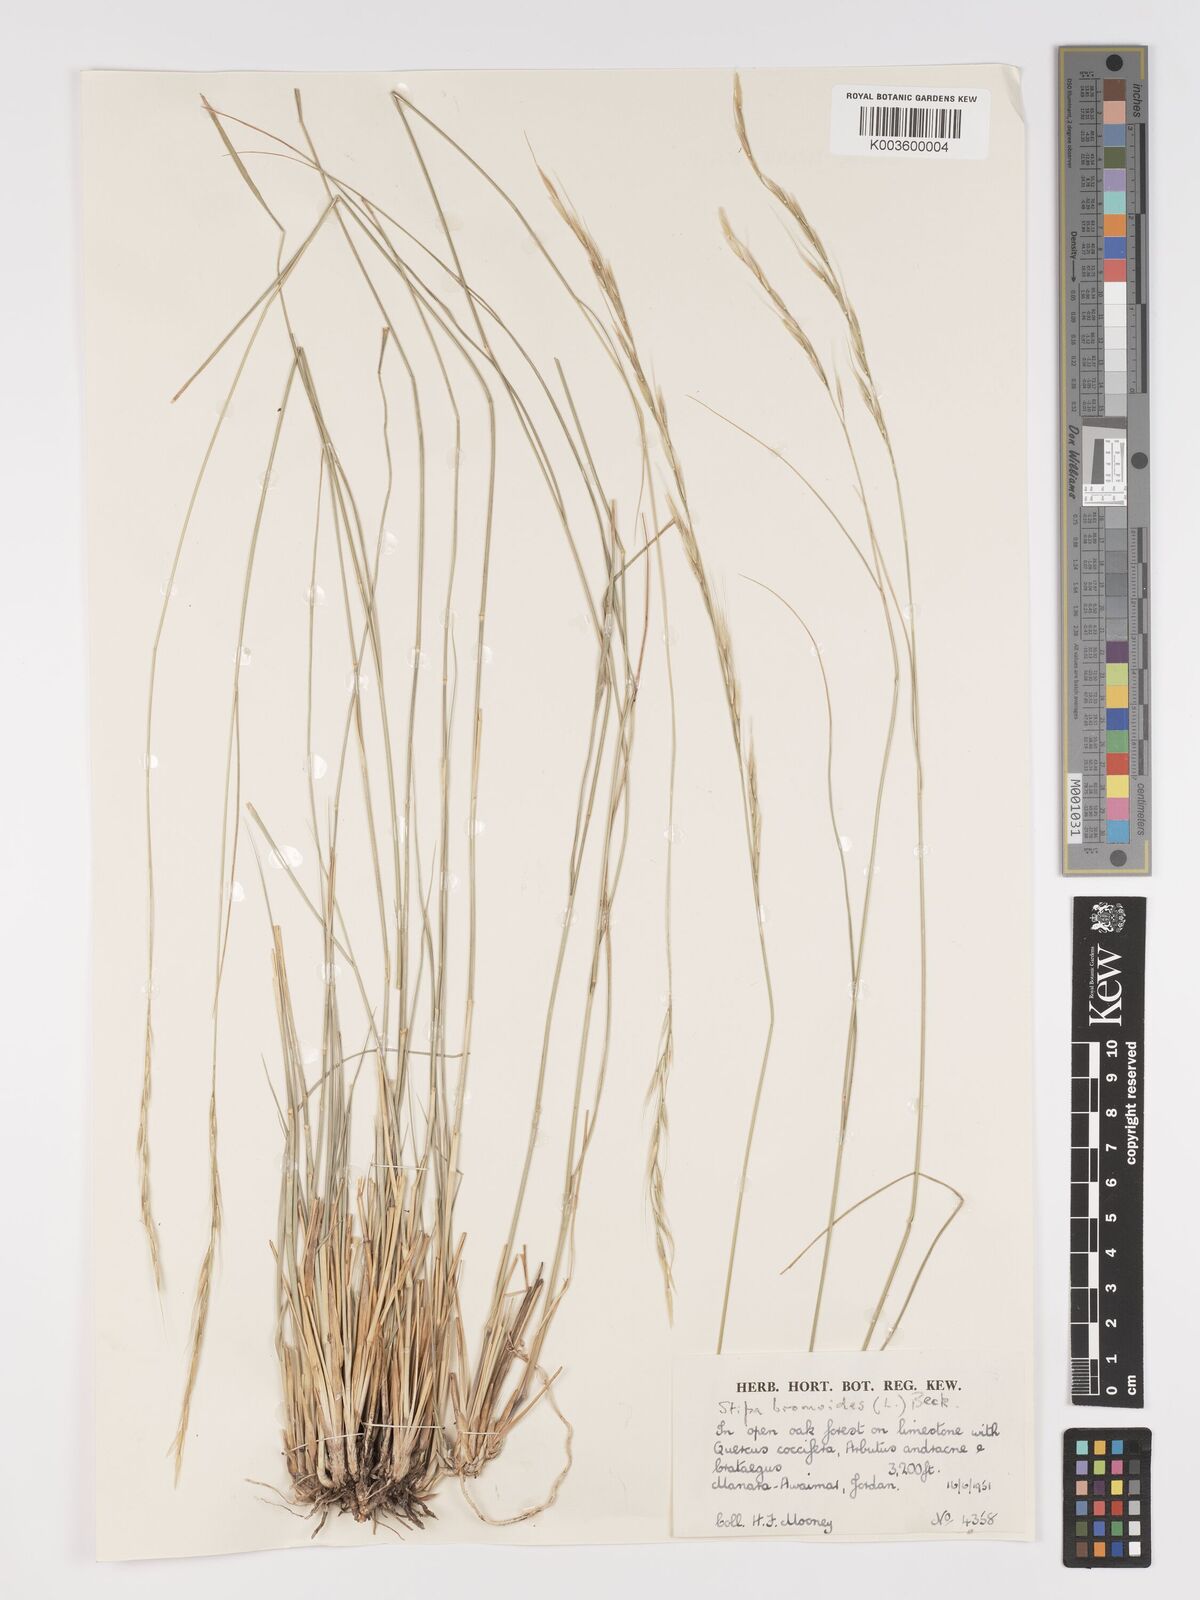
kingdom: Plantae
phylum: Tracheophyta
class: Liliopsida
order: Poales
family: Poaceae
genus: Achnatherum
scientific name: Achnatherum bromoides
